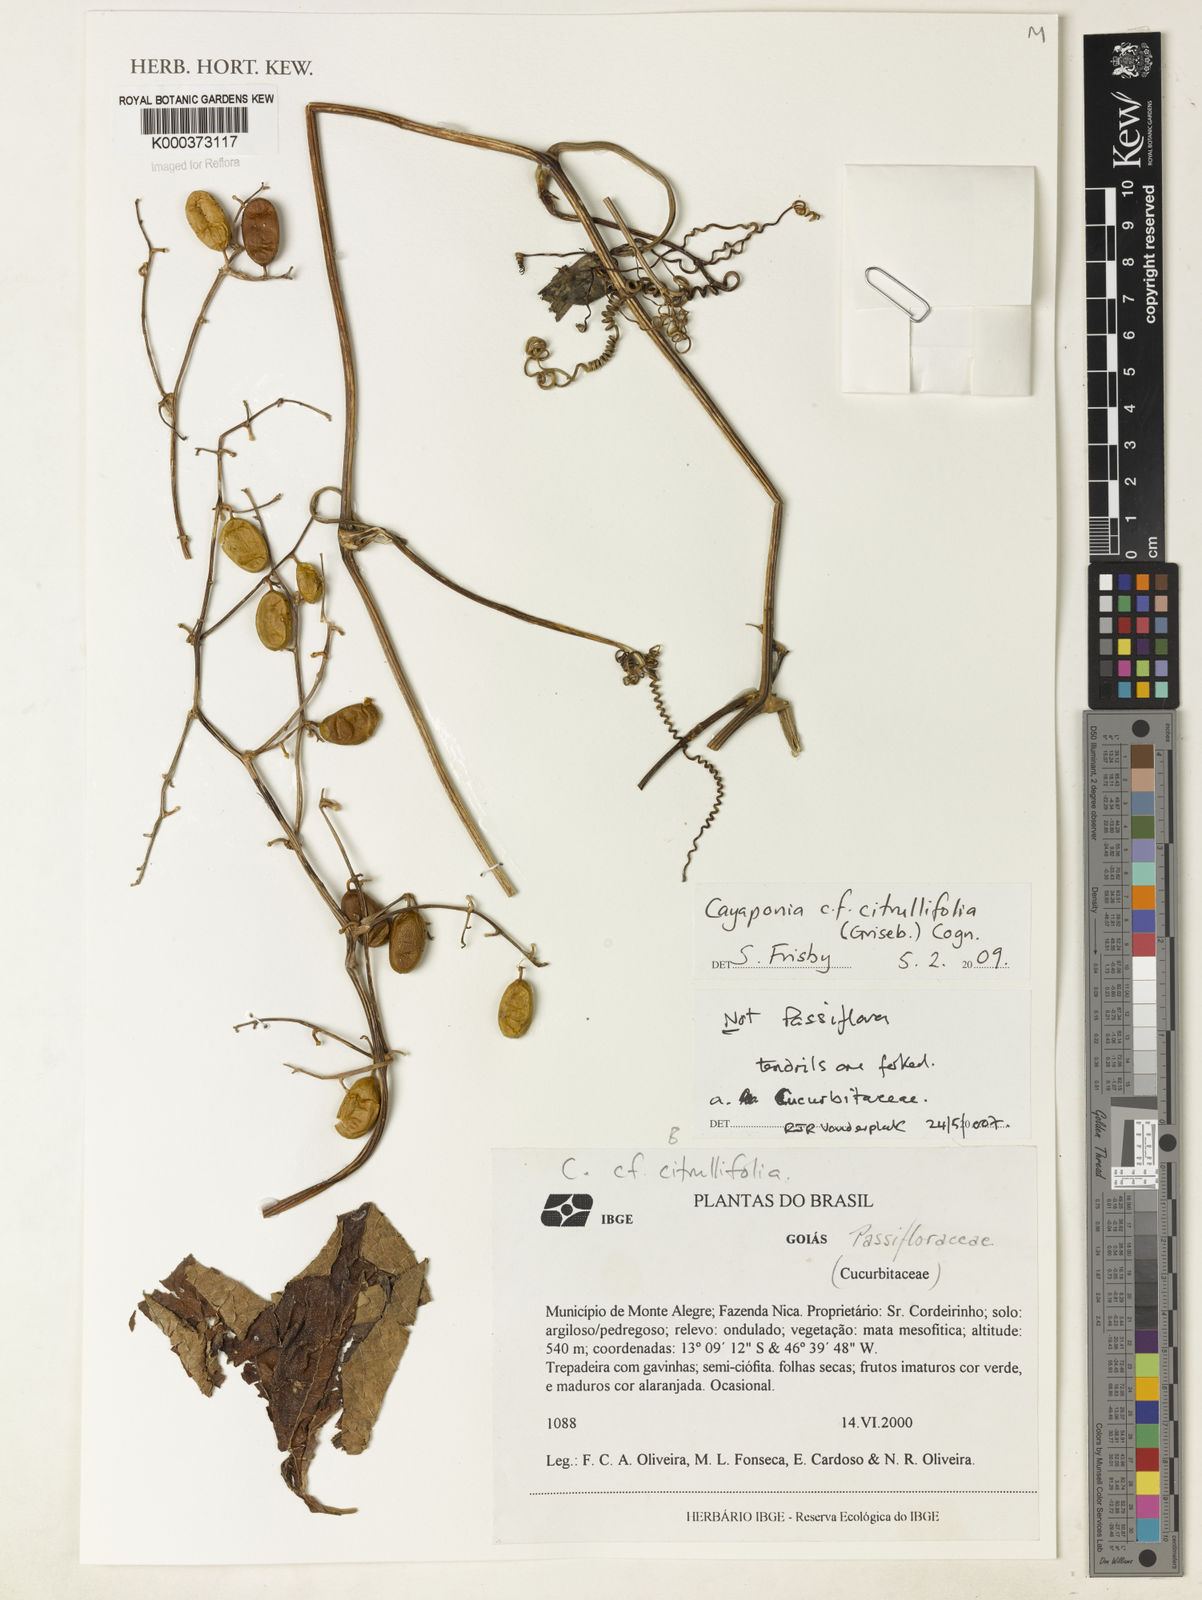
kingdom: Plantae
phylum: Tracheophyta
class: Magnoliopsida
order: Cucurbitales
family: Cucurbitaceae
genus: Cayaponia
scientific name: Cayaponia
